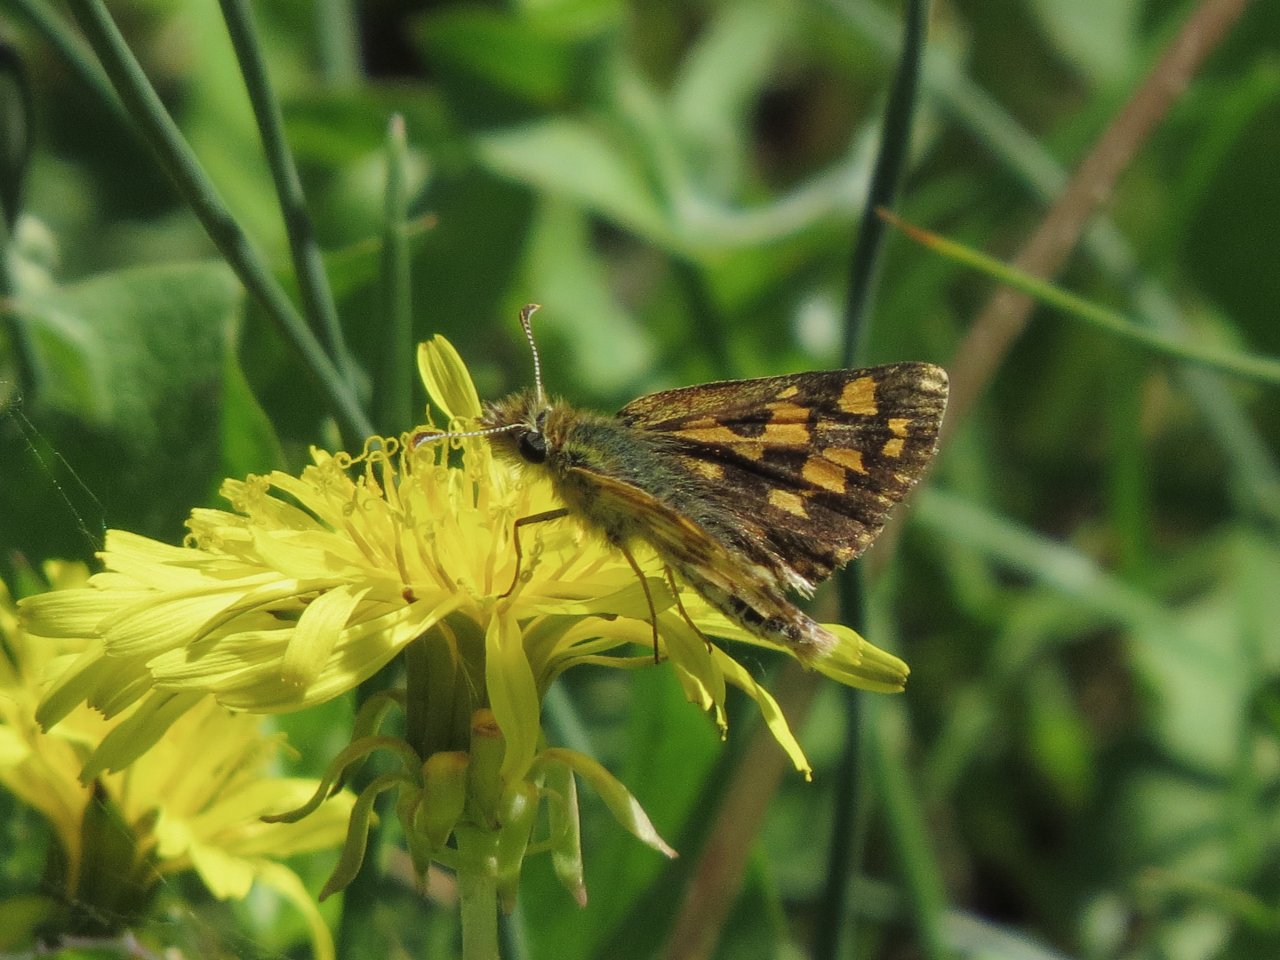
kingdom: Animalia
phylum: Arthropoda
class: Insecta
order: Lepidoptera
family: Hesperiidae
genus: Carterocephalus
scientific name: Carterocephalus palaemon
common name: Chequered Skipper
